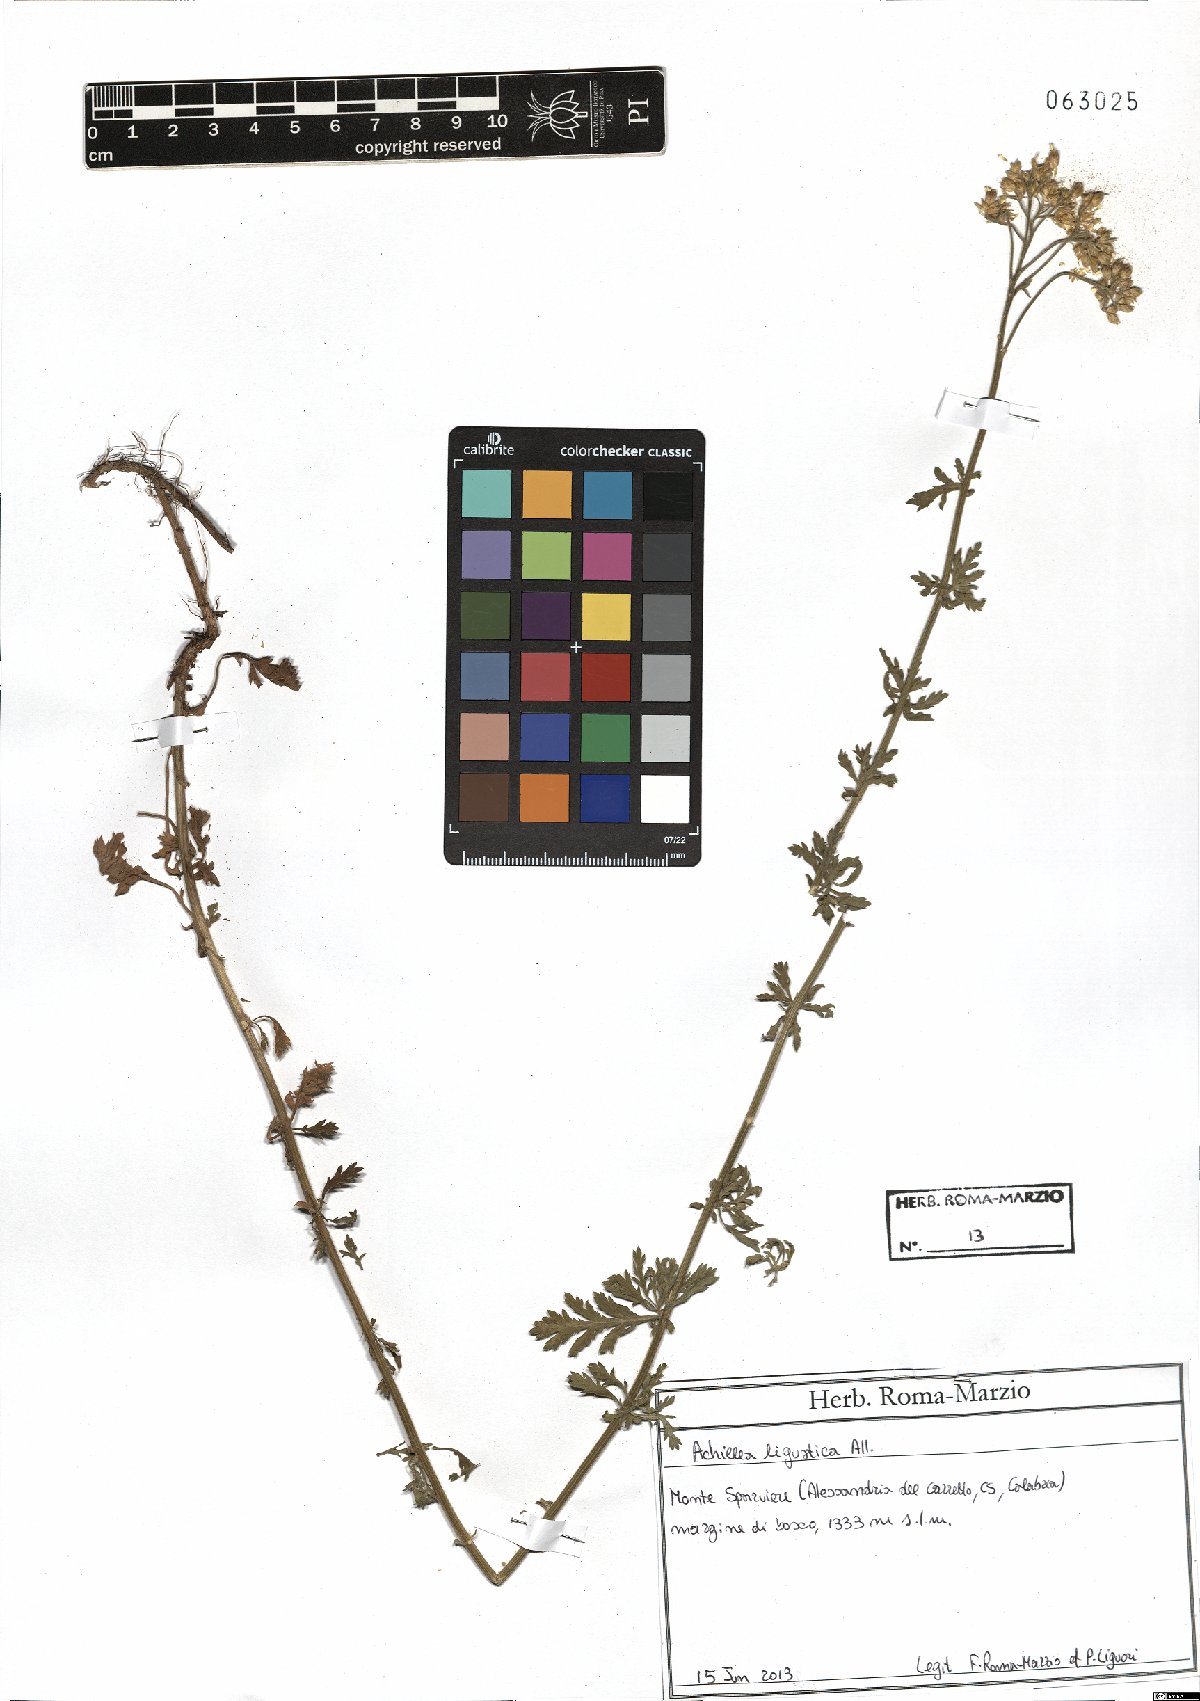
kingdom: Plantae
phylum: Tracheophyta
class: Magnoliopsida
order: Asterales
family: Asteraceae
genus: Achillea
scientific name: Achillea ligustica
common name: Southern yarrow
